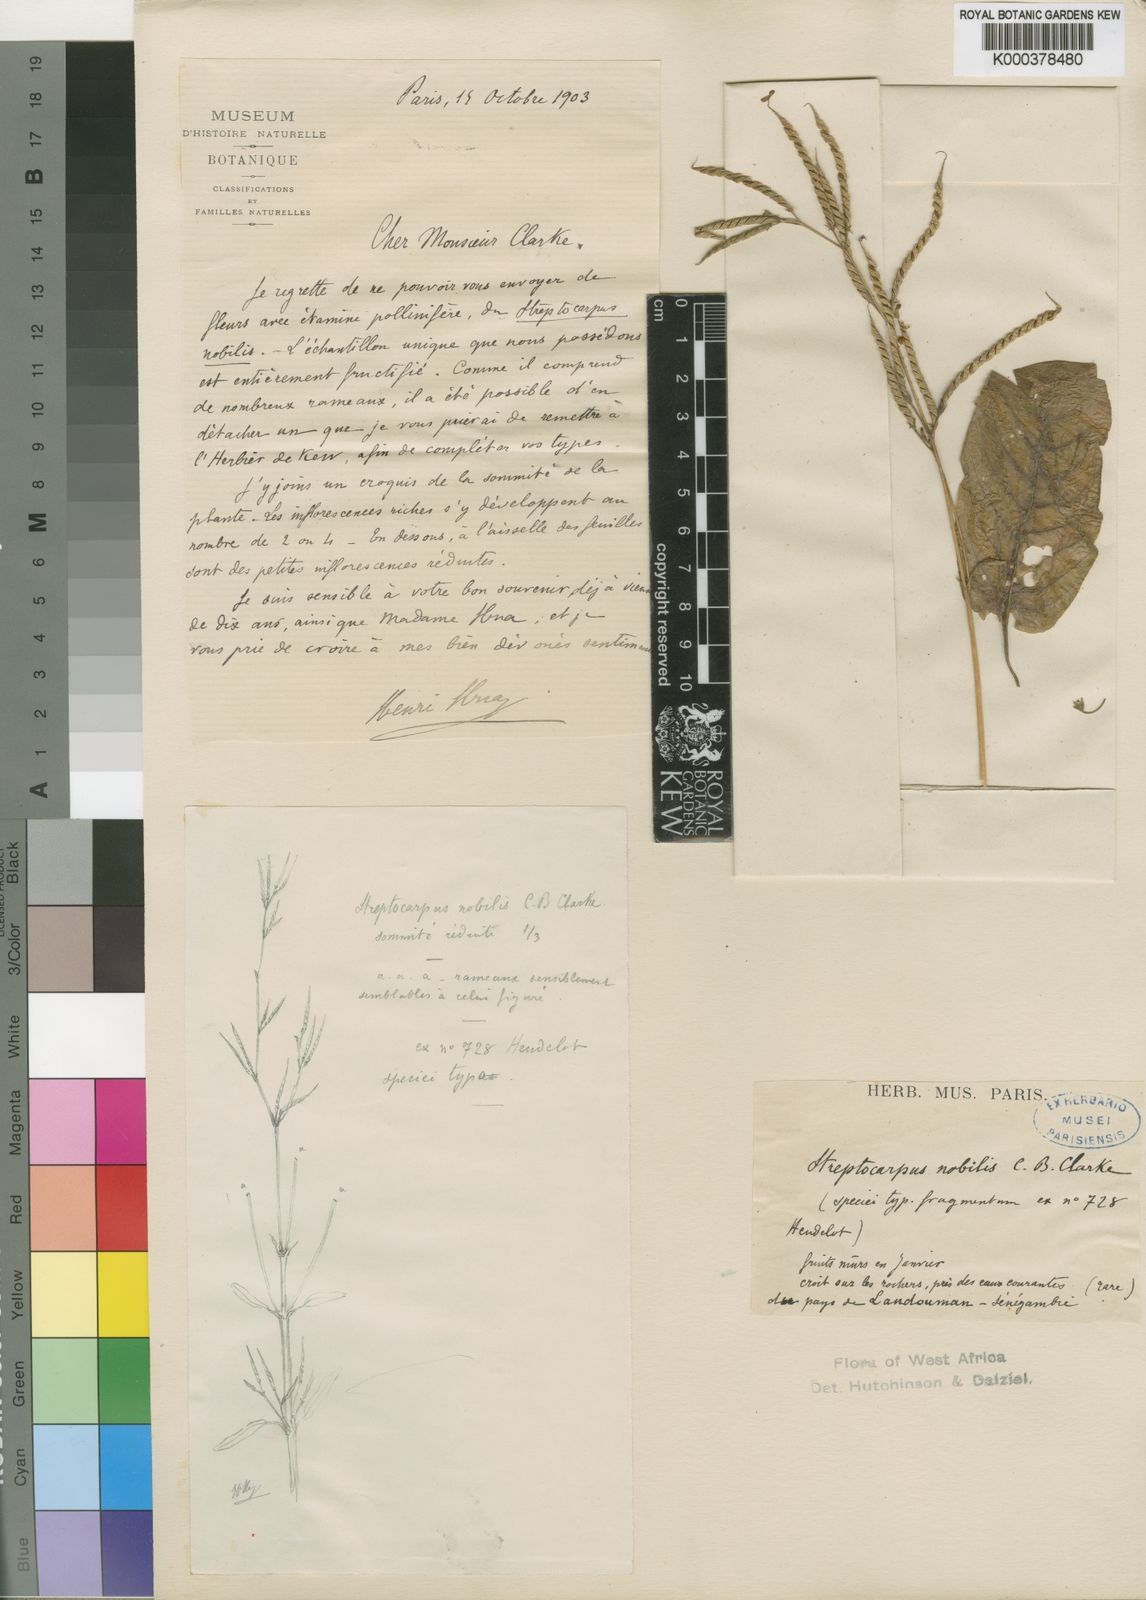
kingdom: Plantae
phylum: Tracheophyta
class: Magnoliopsida
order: Lamiales
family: Gesneriaceae
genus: Streptocarpus
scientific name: Streptocarpus nobilis
